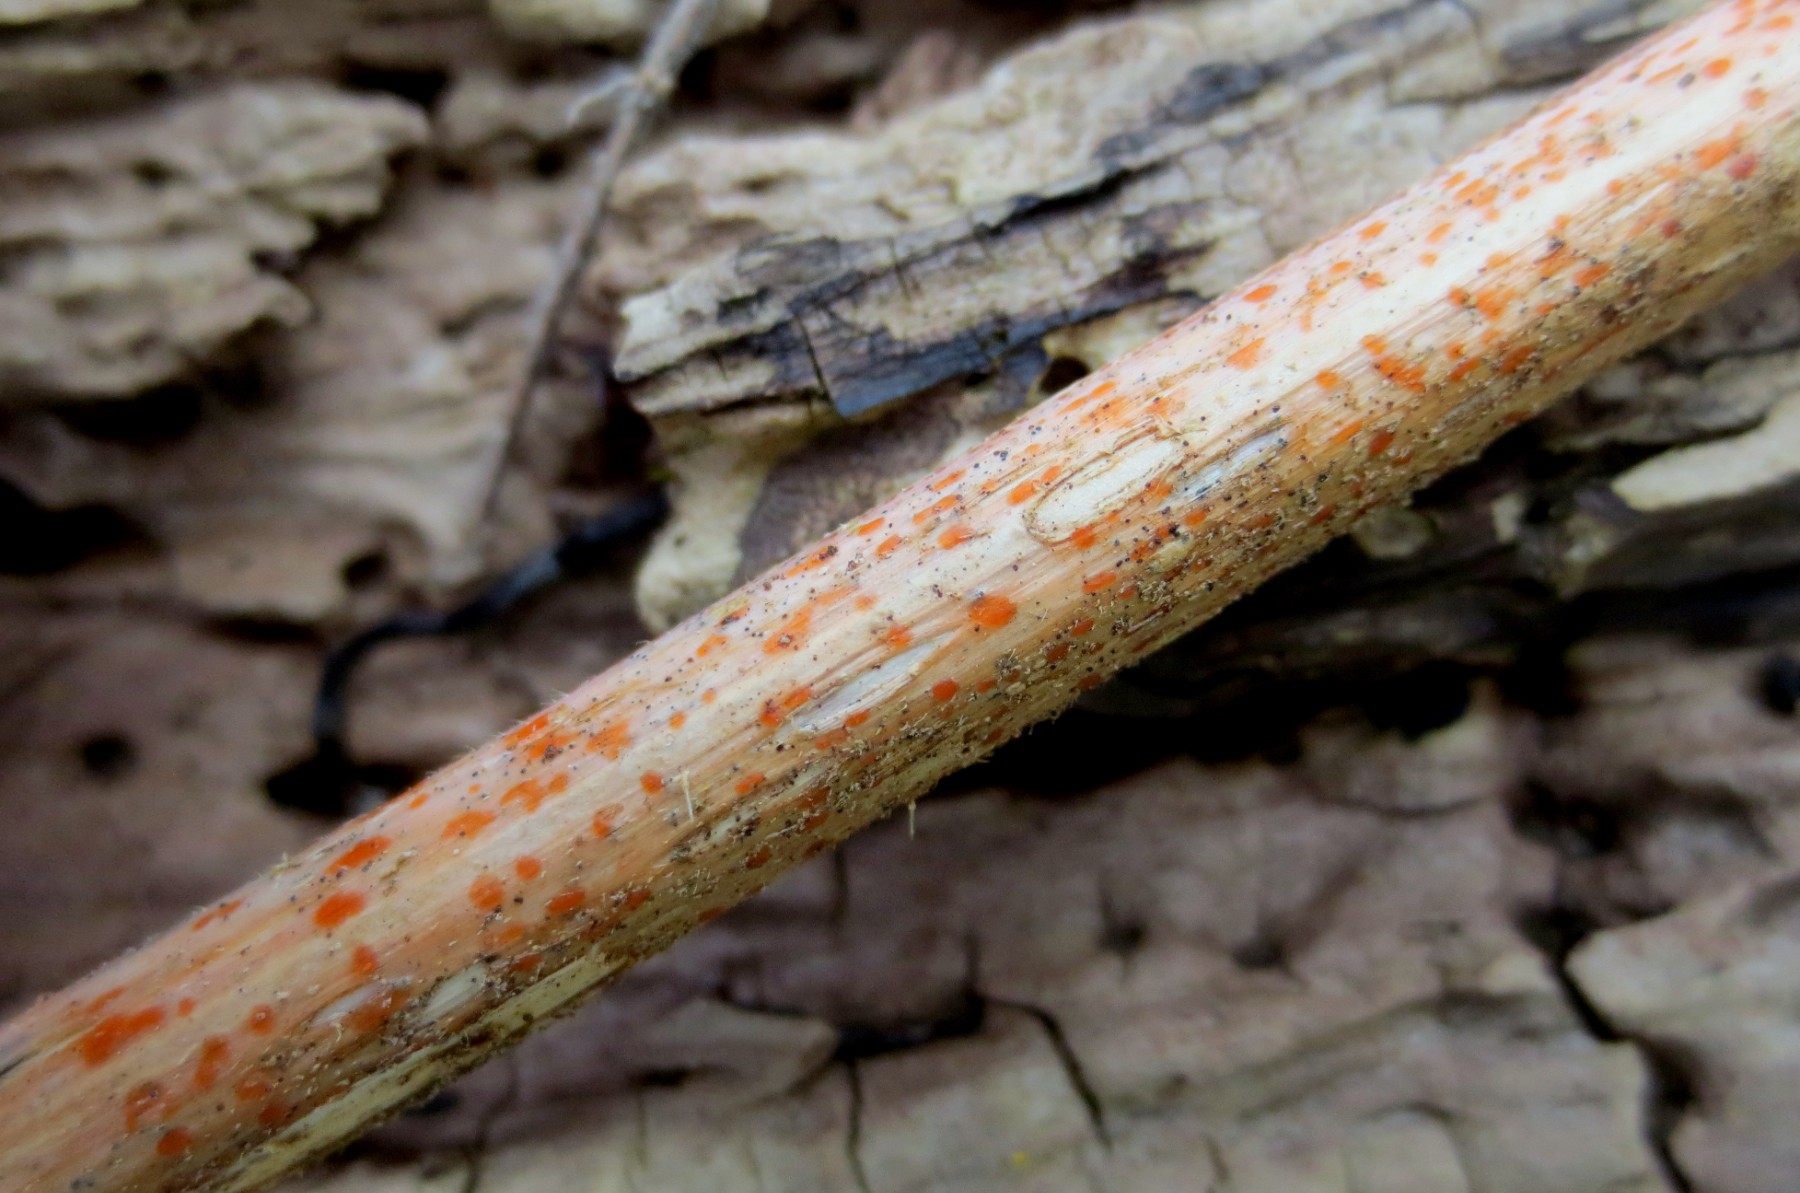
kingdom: Fungi
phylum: Ascomycota
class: Leotiomycetes
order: Helotiales
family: Calloriaceae
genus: Calloria
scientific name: Calloria urticae
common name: nælde-orangeskive
